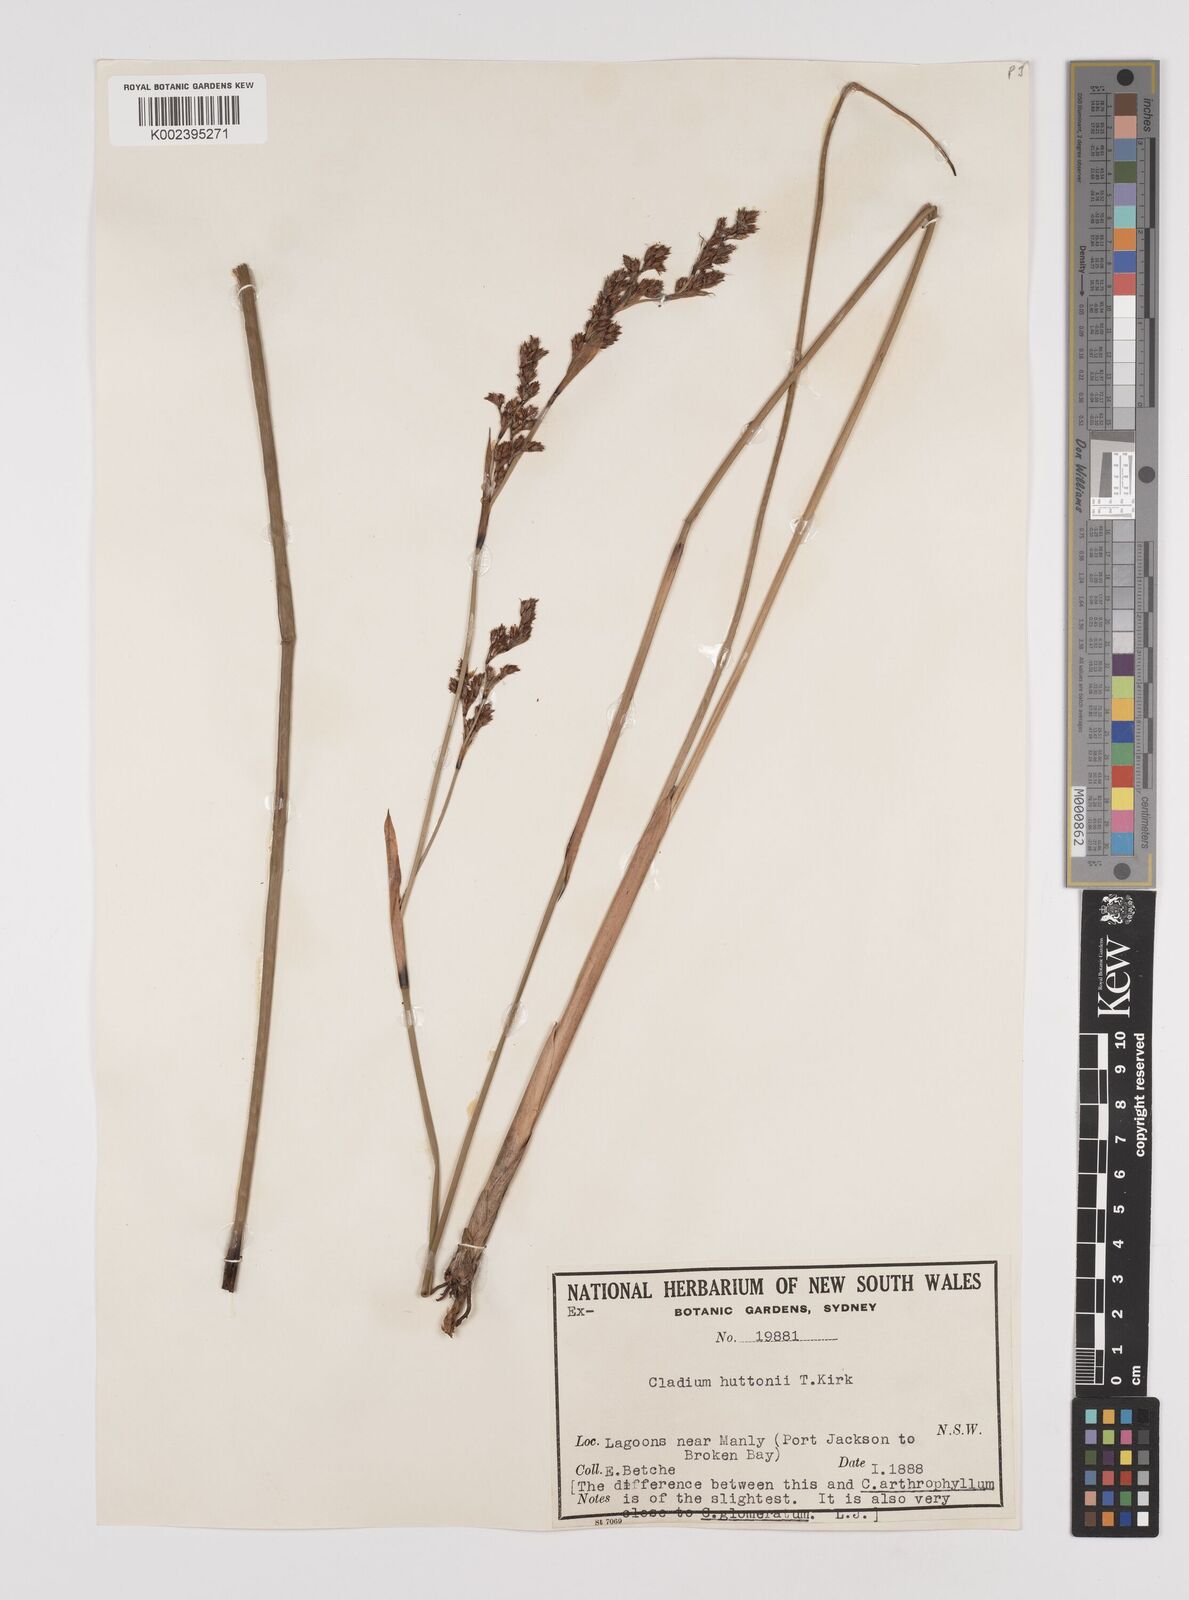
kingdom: Plantae
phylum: Tracheophyta
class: Liliopsida
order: Poales
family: Cyperaceae
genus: Machaerina
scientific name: Machaerina huttonii
